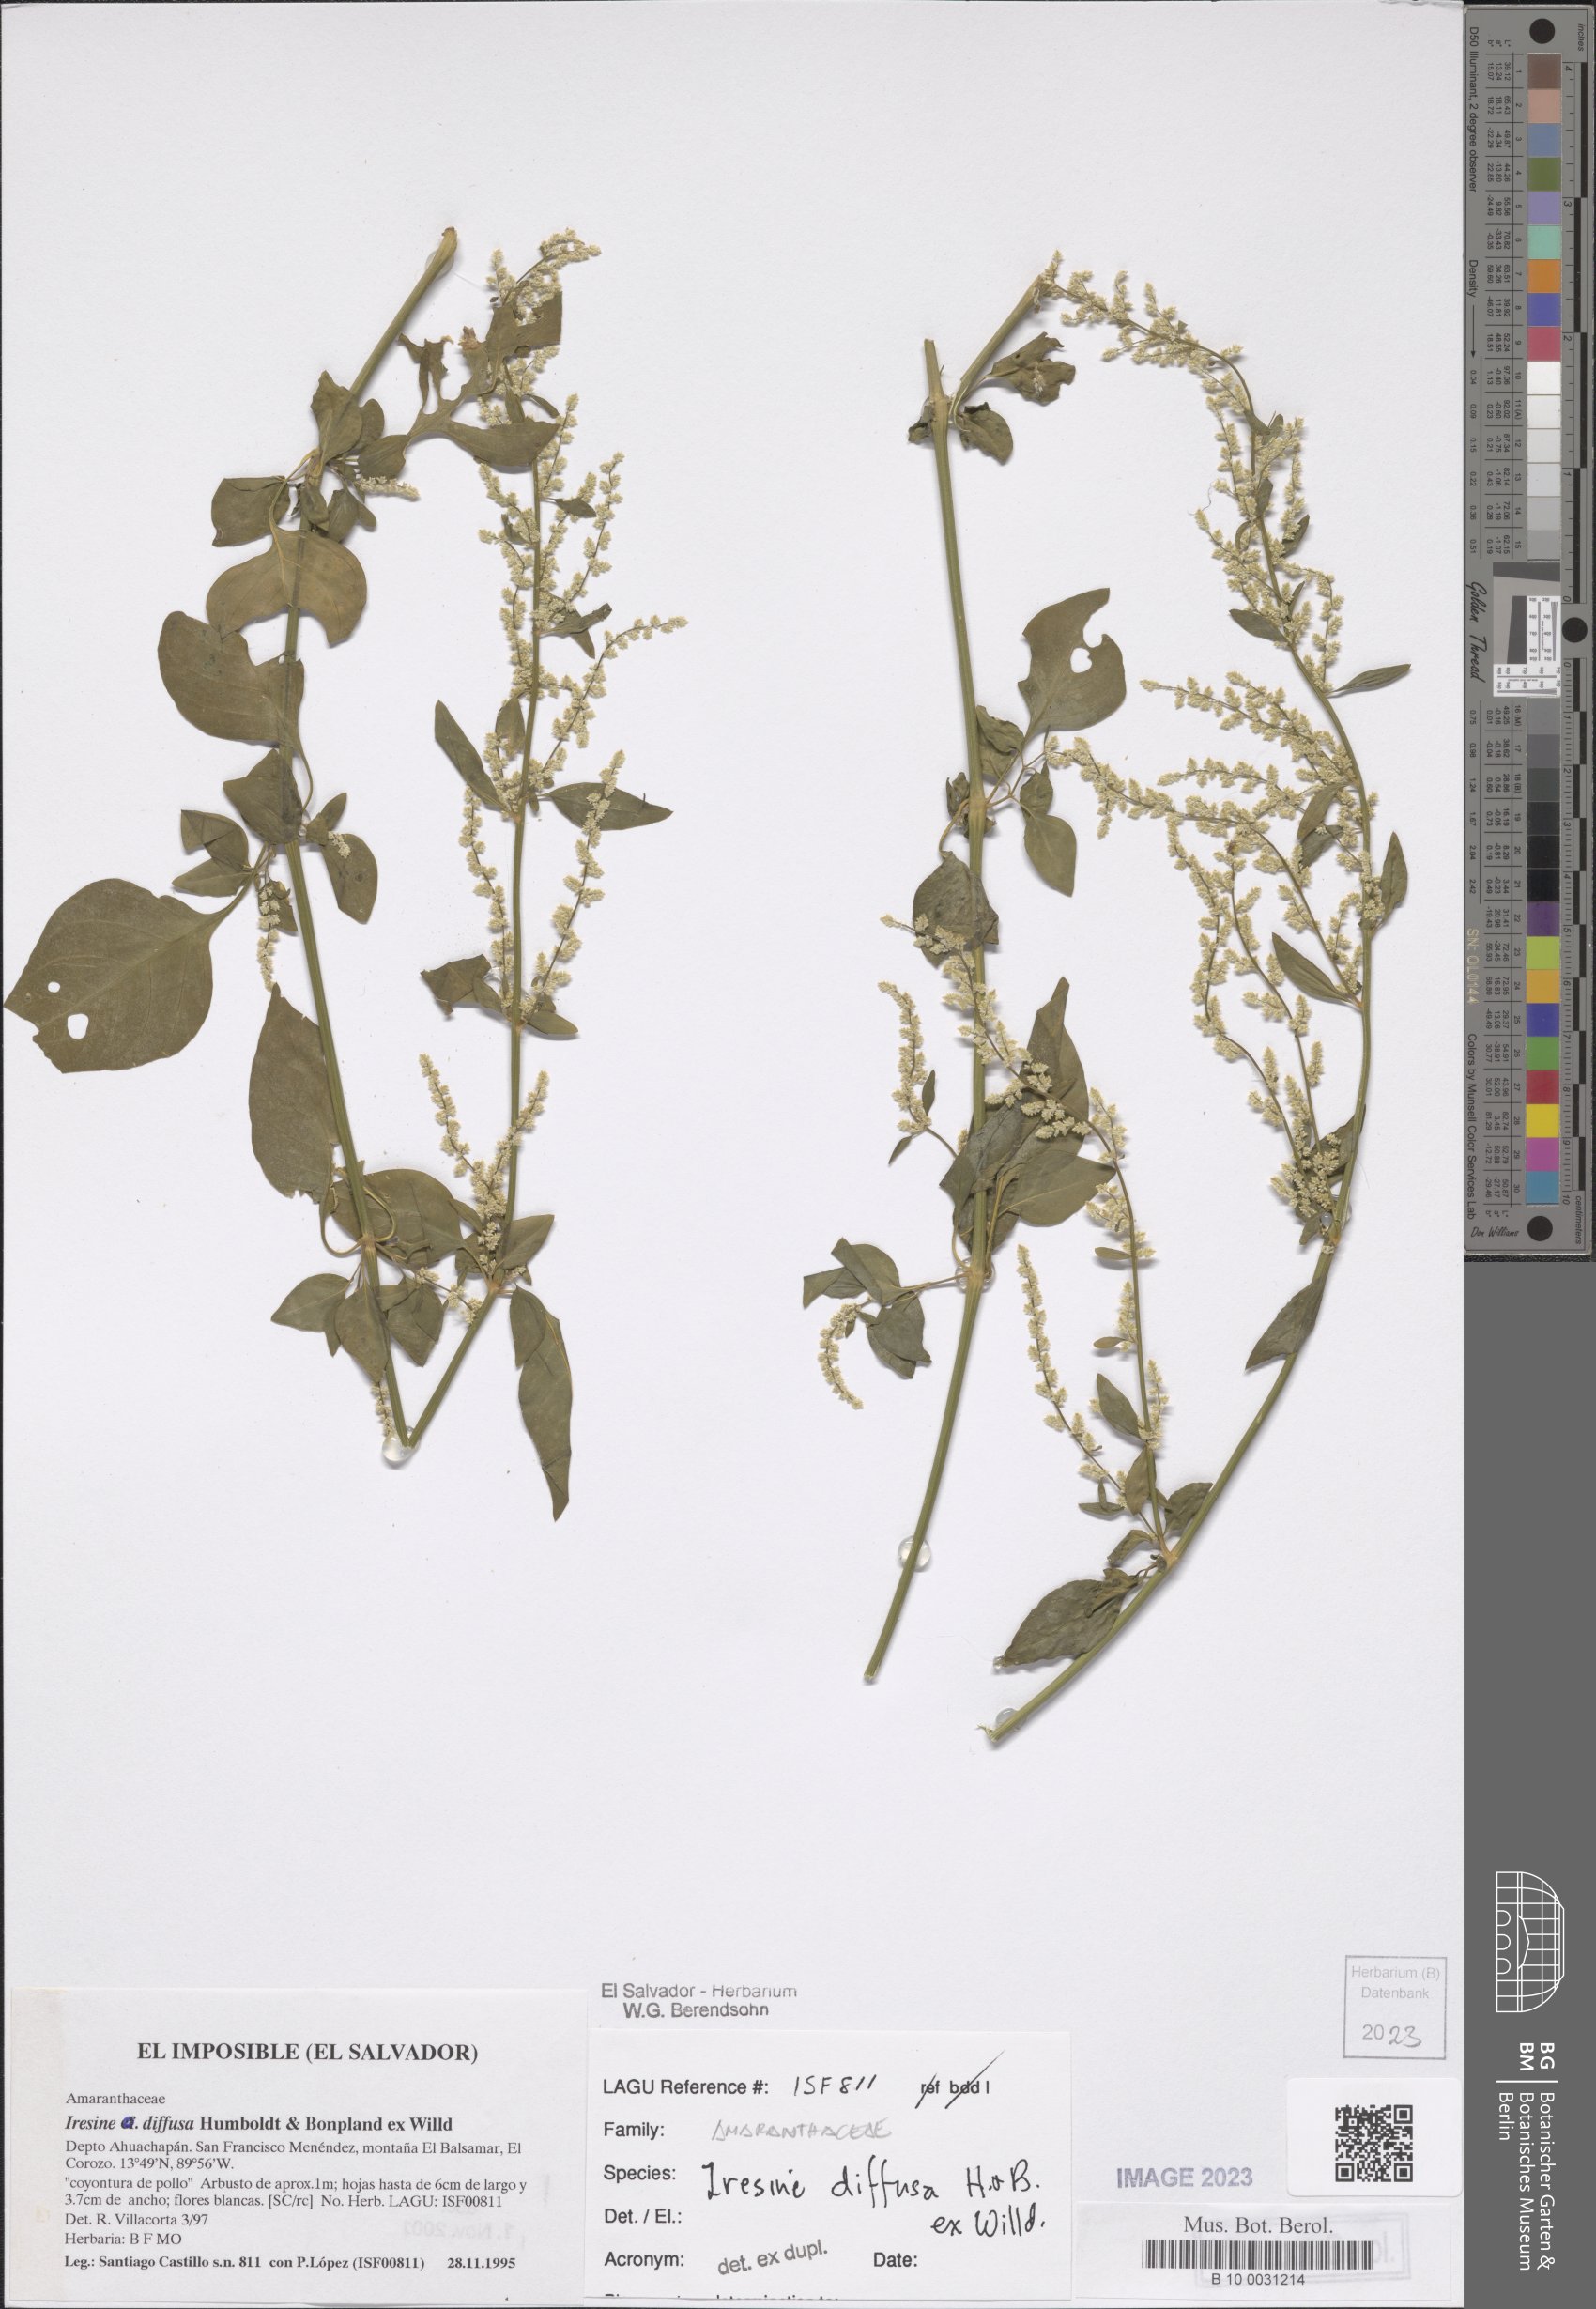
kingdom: Plantae
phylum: Tracheophyta
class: Magnoliopsida
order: Caryophyllales
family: Amaranthaceae
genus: Iresine
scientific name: Iresine diffusa
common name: Juba's-bush
